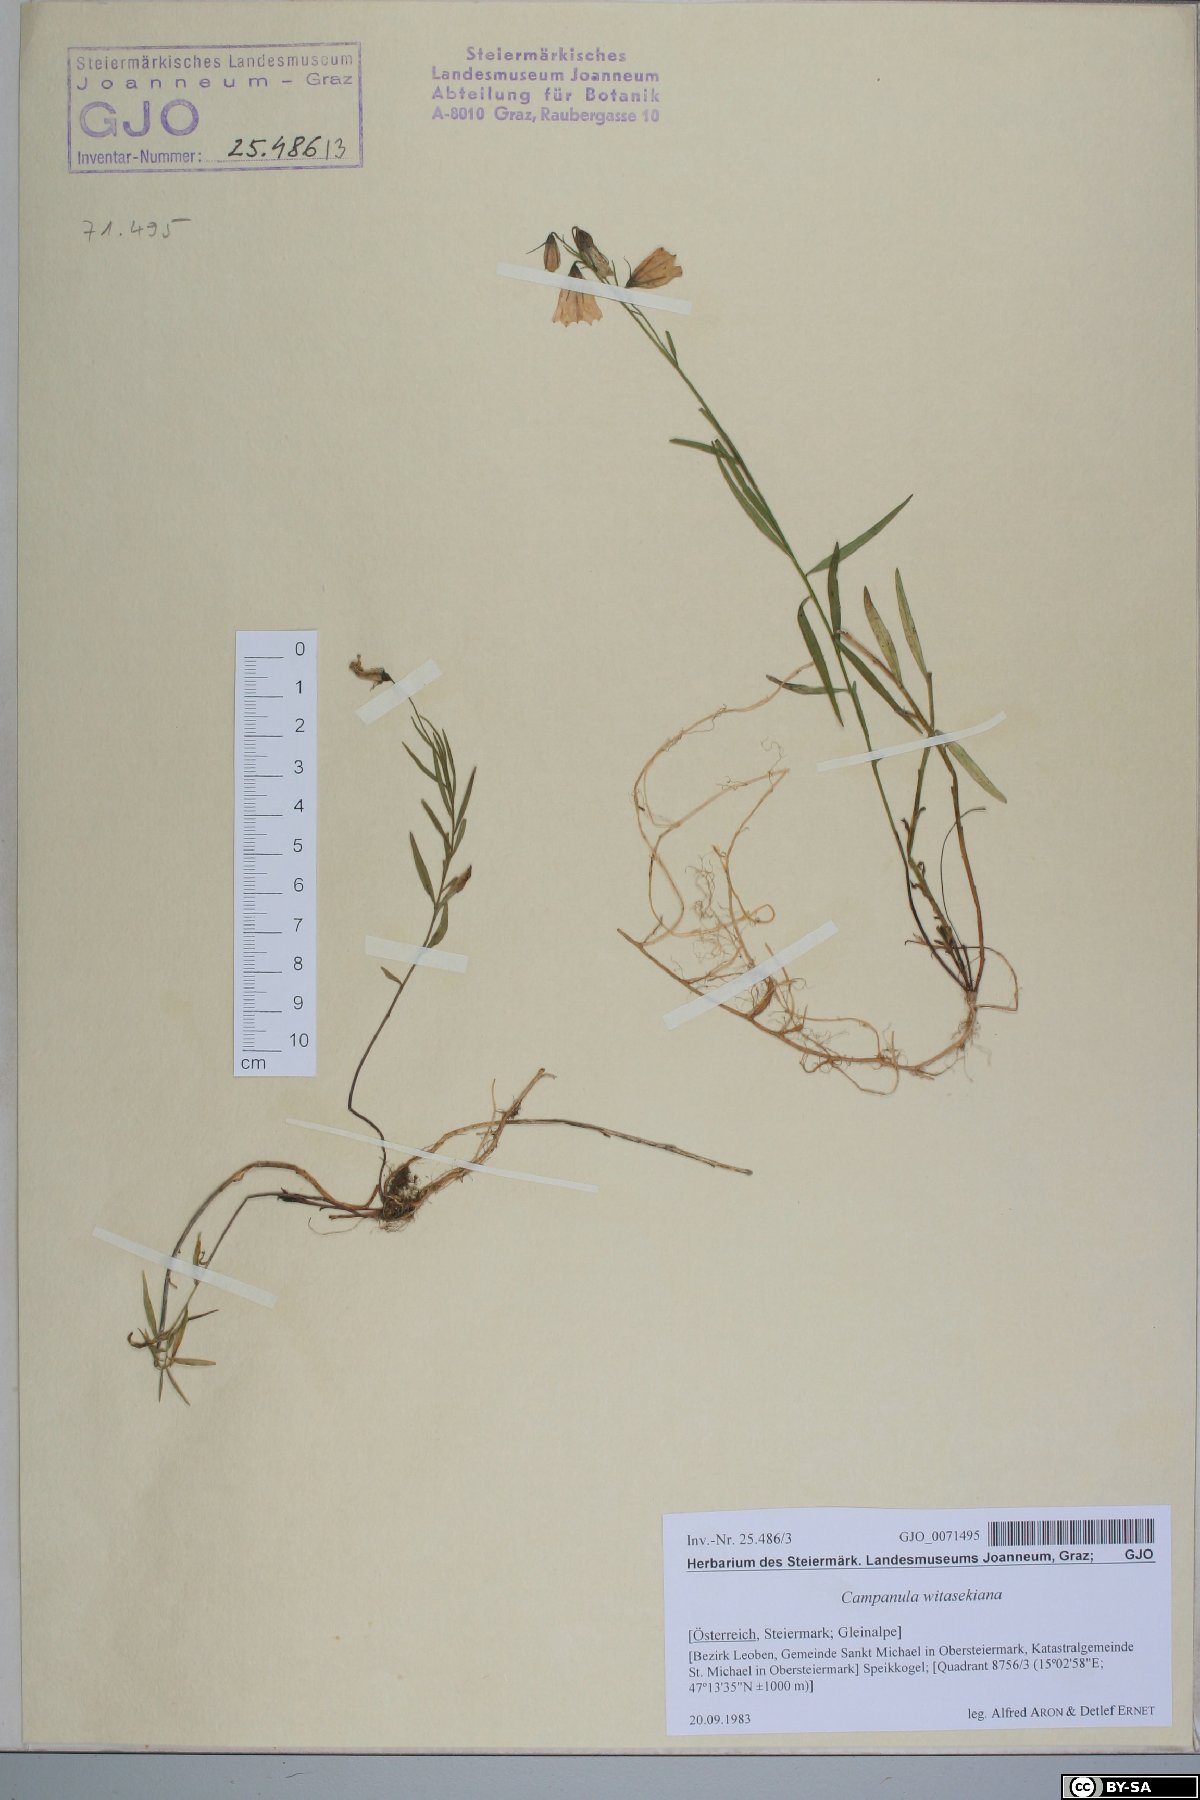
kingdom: Plantae
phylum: Tracheophyta
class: Magnoliopsida
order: Asterales
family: Campanulaceae
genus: Campanula
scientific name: Campanula witasekiana
